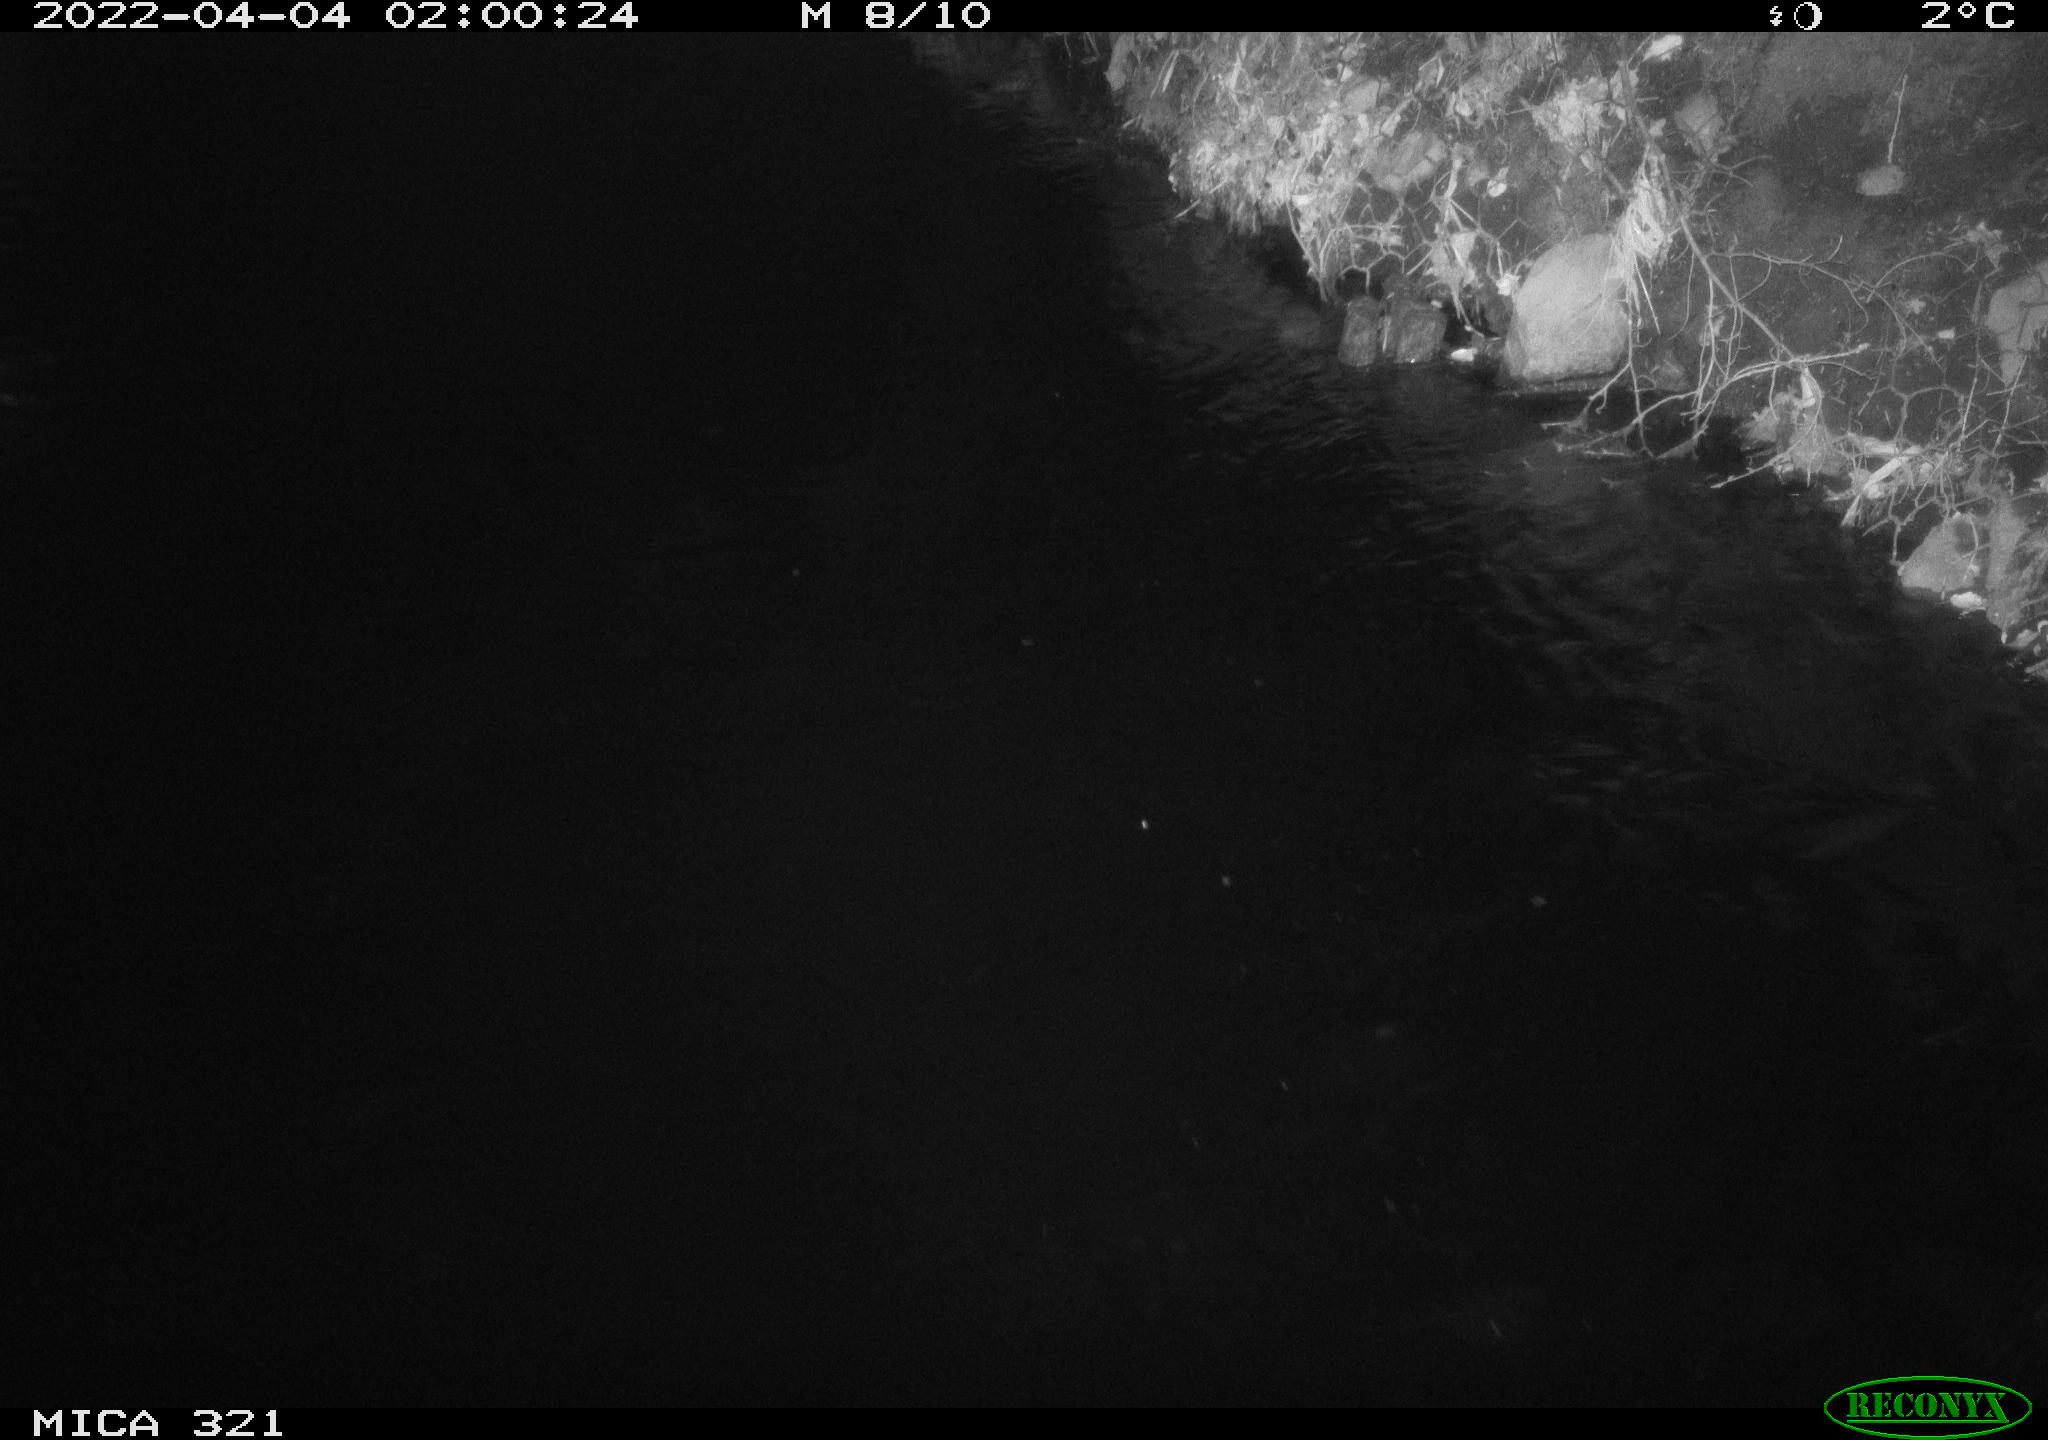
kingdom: Animalia
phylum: Chordata
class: Aves
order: Anseriformes
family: Anatidae
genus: Anas
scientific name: Anas platyrhynchos
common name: Mallard
